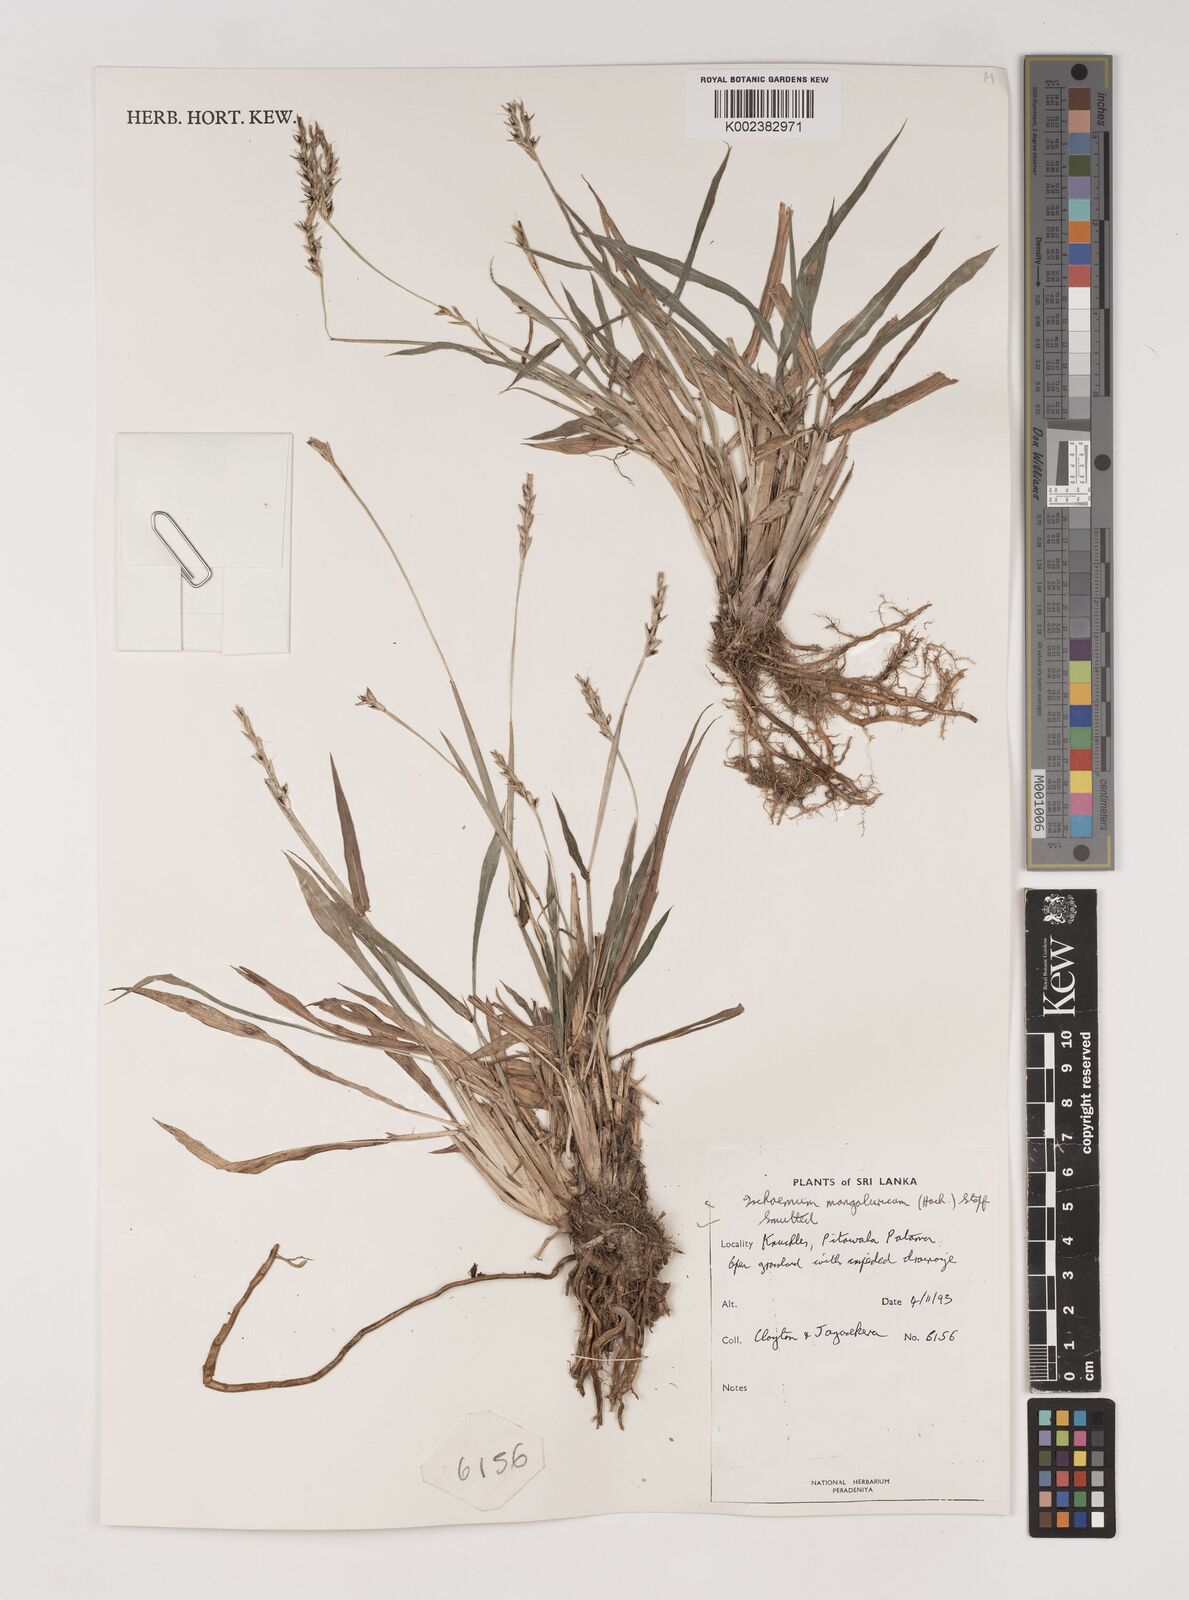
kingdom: Plantae
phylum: Tracheophyta
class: Liliopsida
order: Poales
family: Poaceae
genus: Ischaemum
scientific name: Ischaemum barbatum
